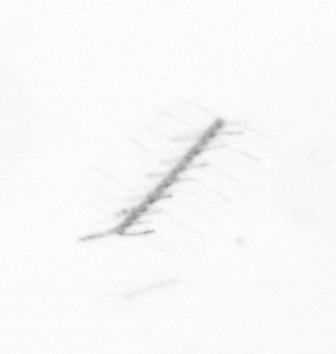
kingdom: Chromista
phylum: Ochrophyta
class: Bacillariophyceae
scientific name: Bacillariophyceae
